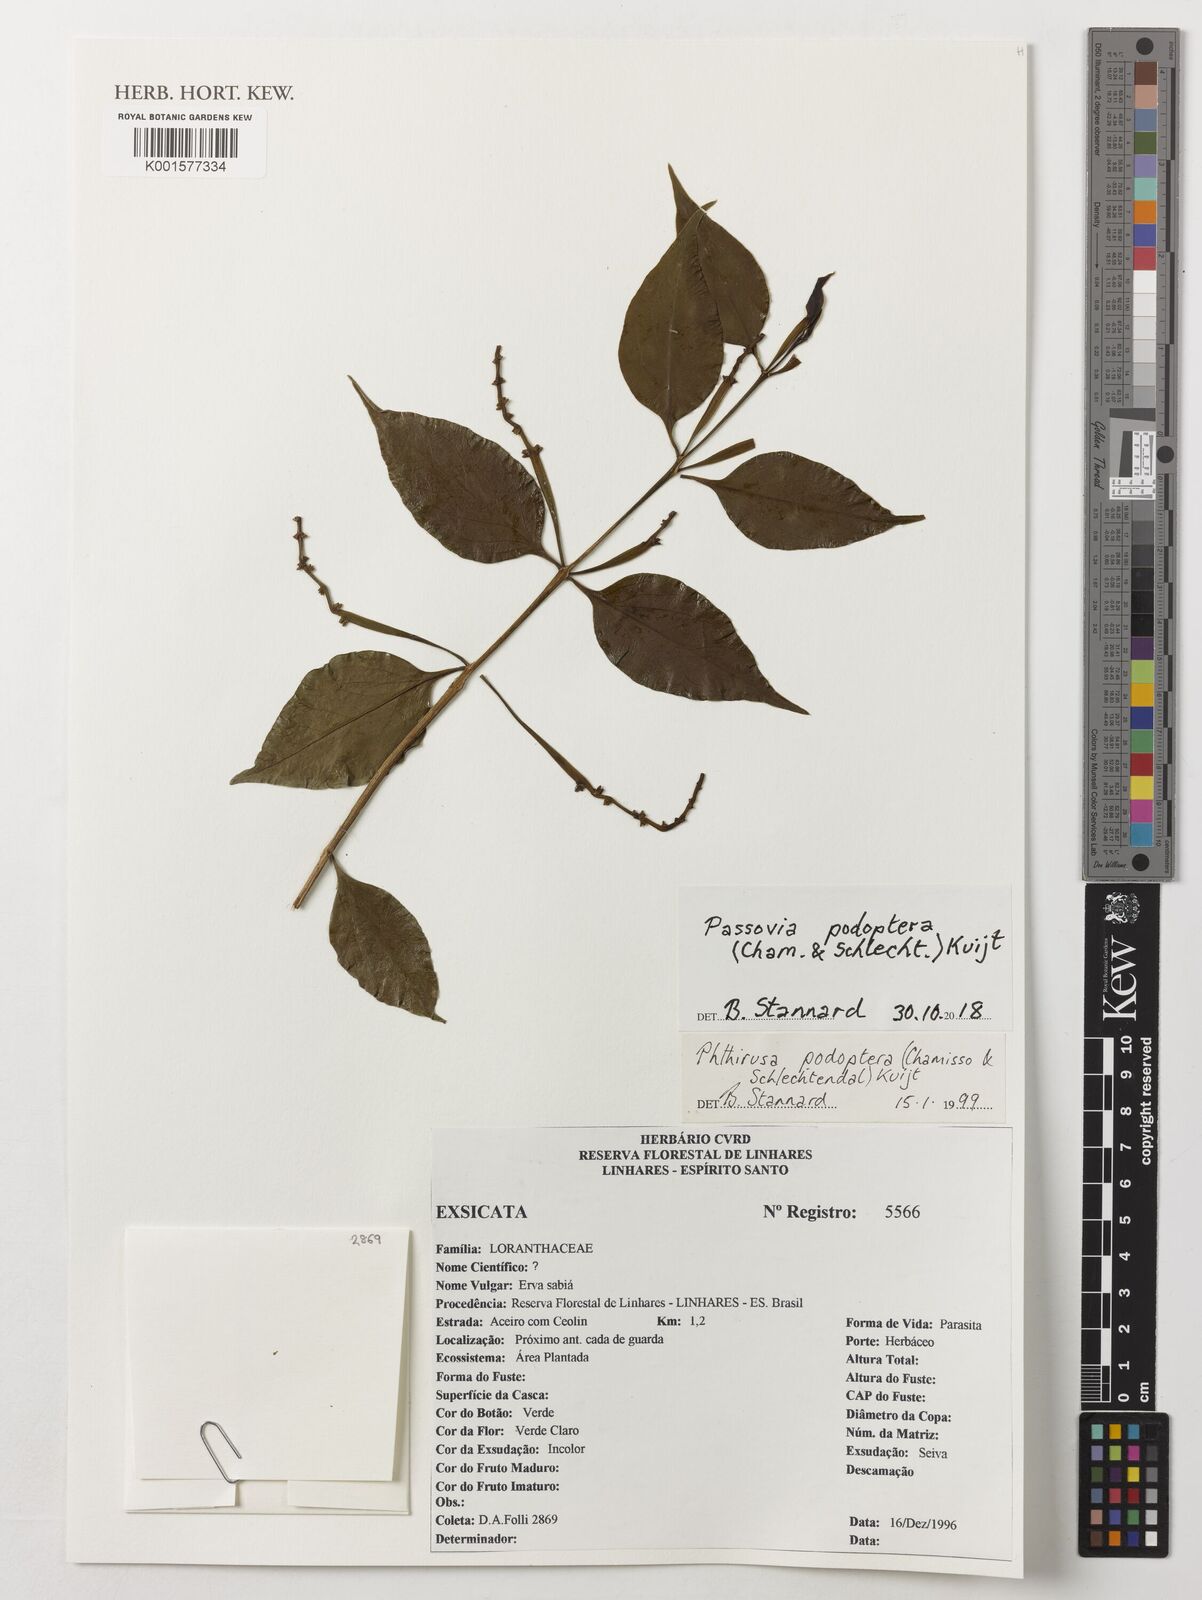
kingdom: Plantae
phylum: Tracheophyta
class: Magnoliopsida
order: Santalales
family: Loranthaceae
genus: Passovia
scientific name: Passovia podoptera
